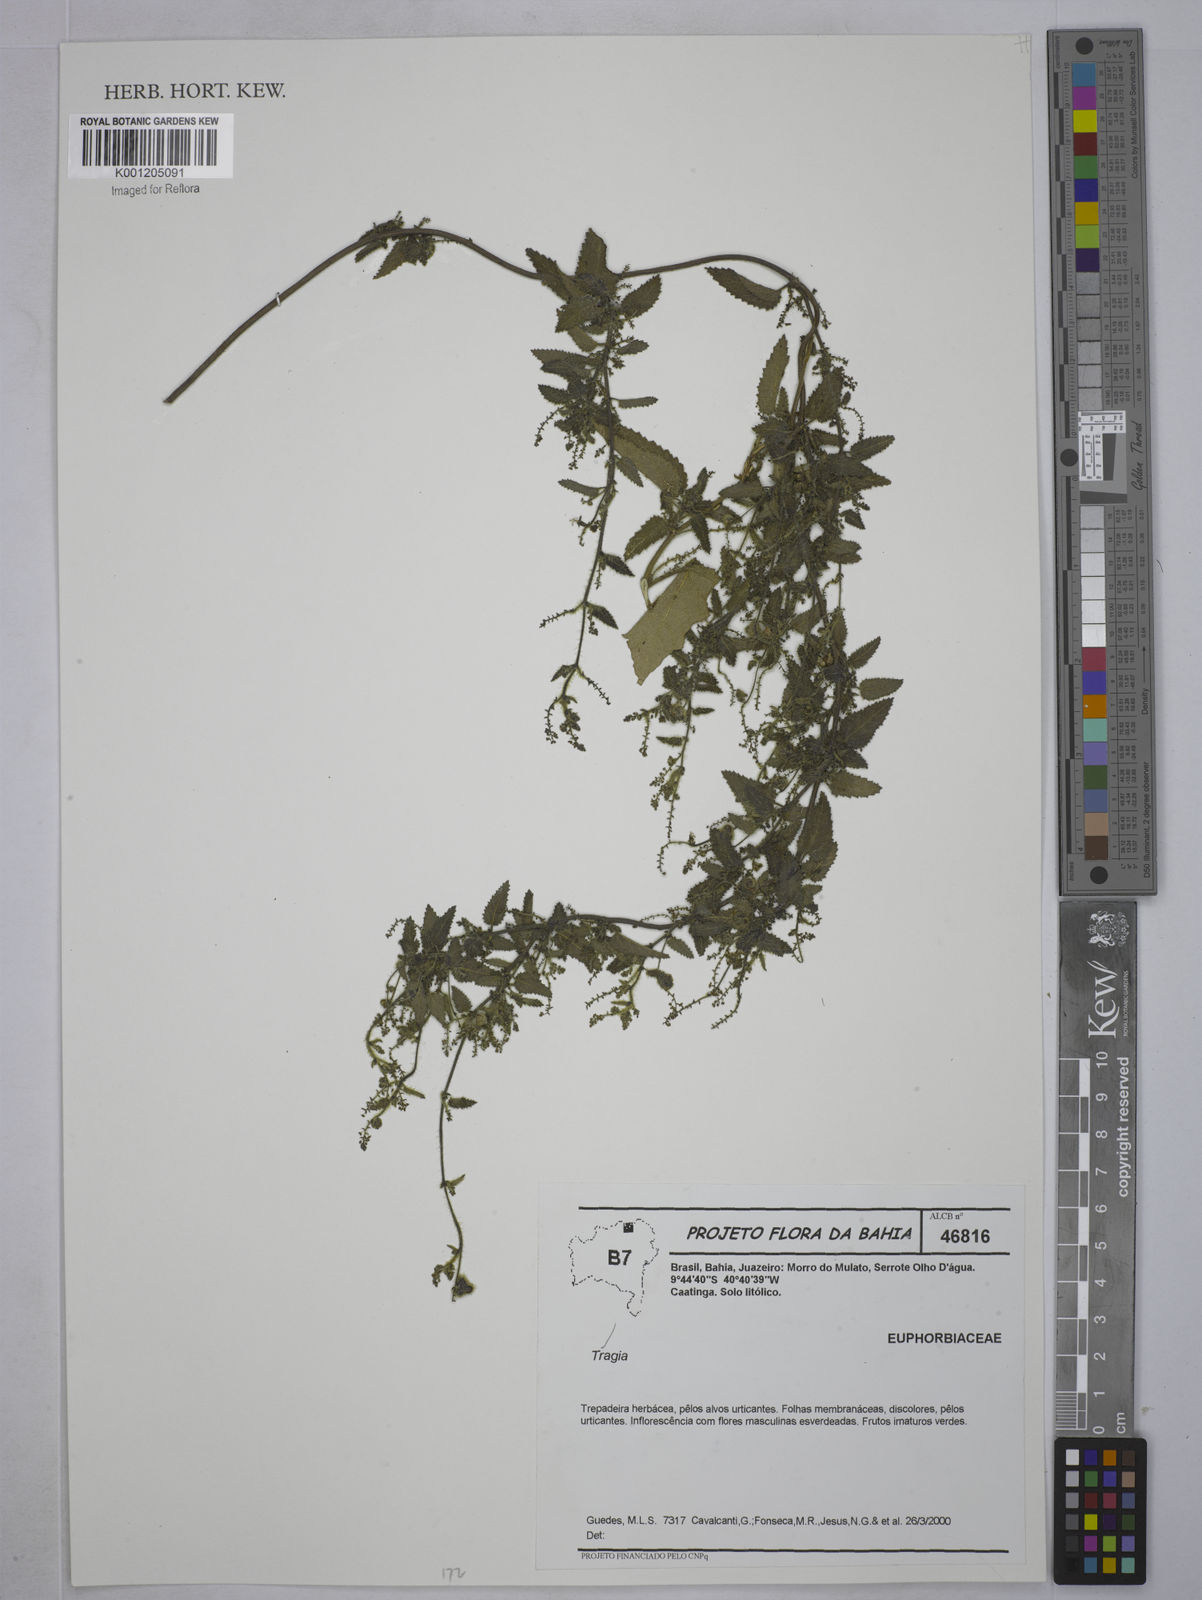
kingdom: Plantae
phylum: Tracheophyta
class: Magnoliopsida
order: Malpighiales
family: Euphorbiaceae
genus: Tragia
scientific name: Tragia
